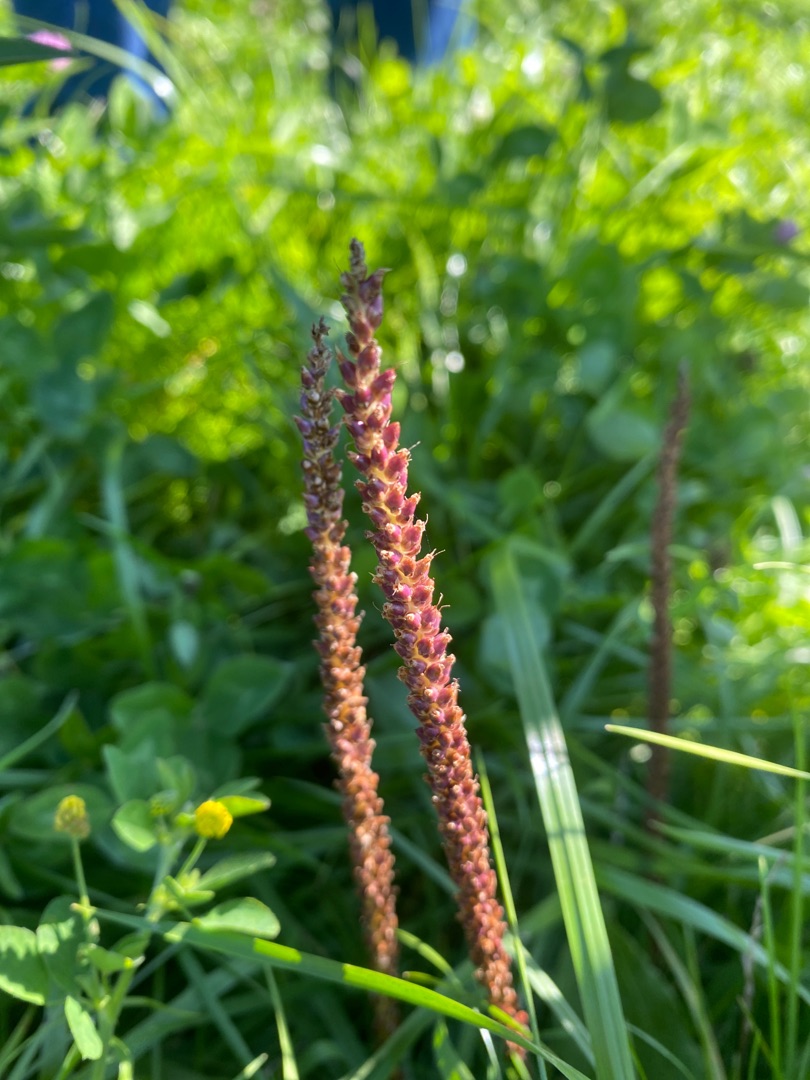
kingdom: Plantae
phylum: Tracheophyta
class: Magnoliopsida
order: Lamiales
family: Plantaginaceae
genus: Plantago
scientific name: Plantago major
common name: Glat vejbred
